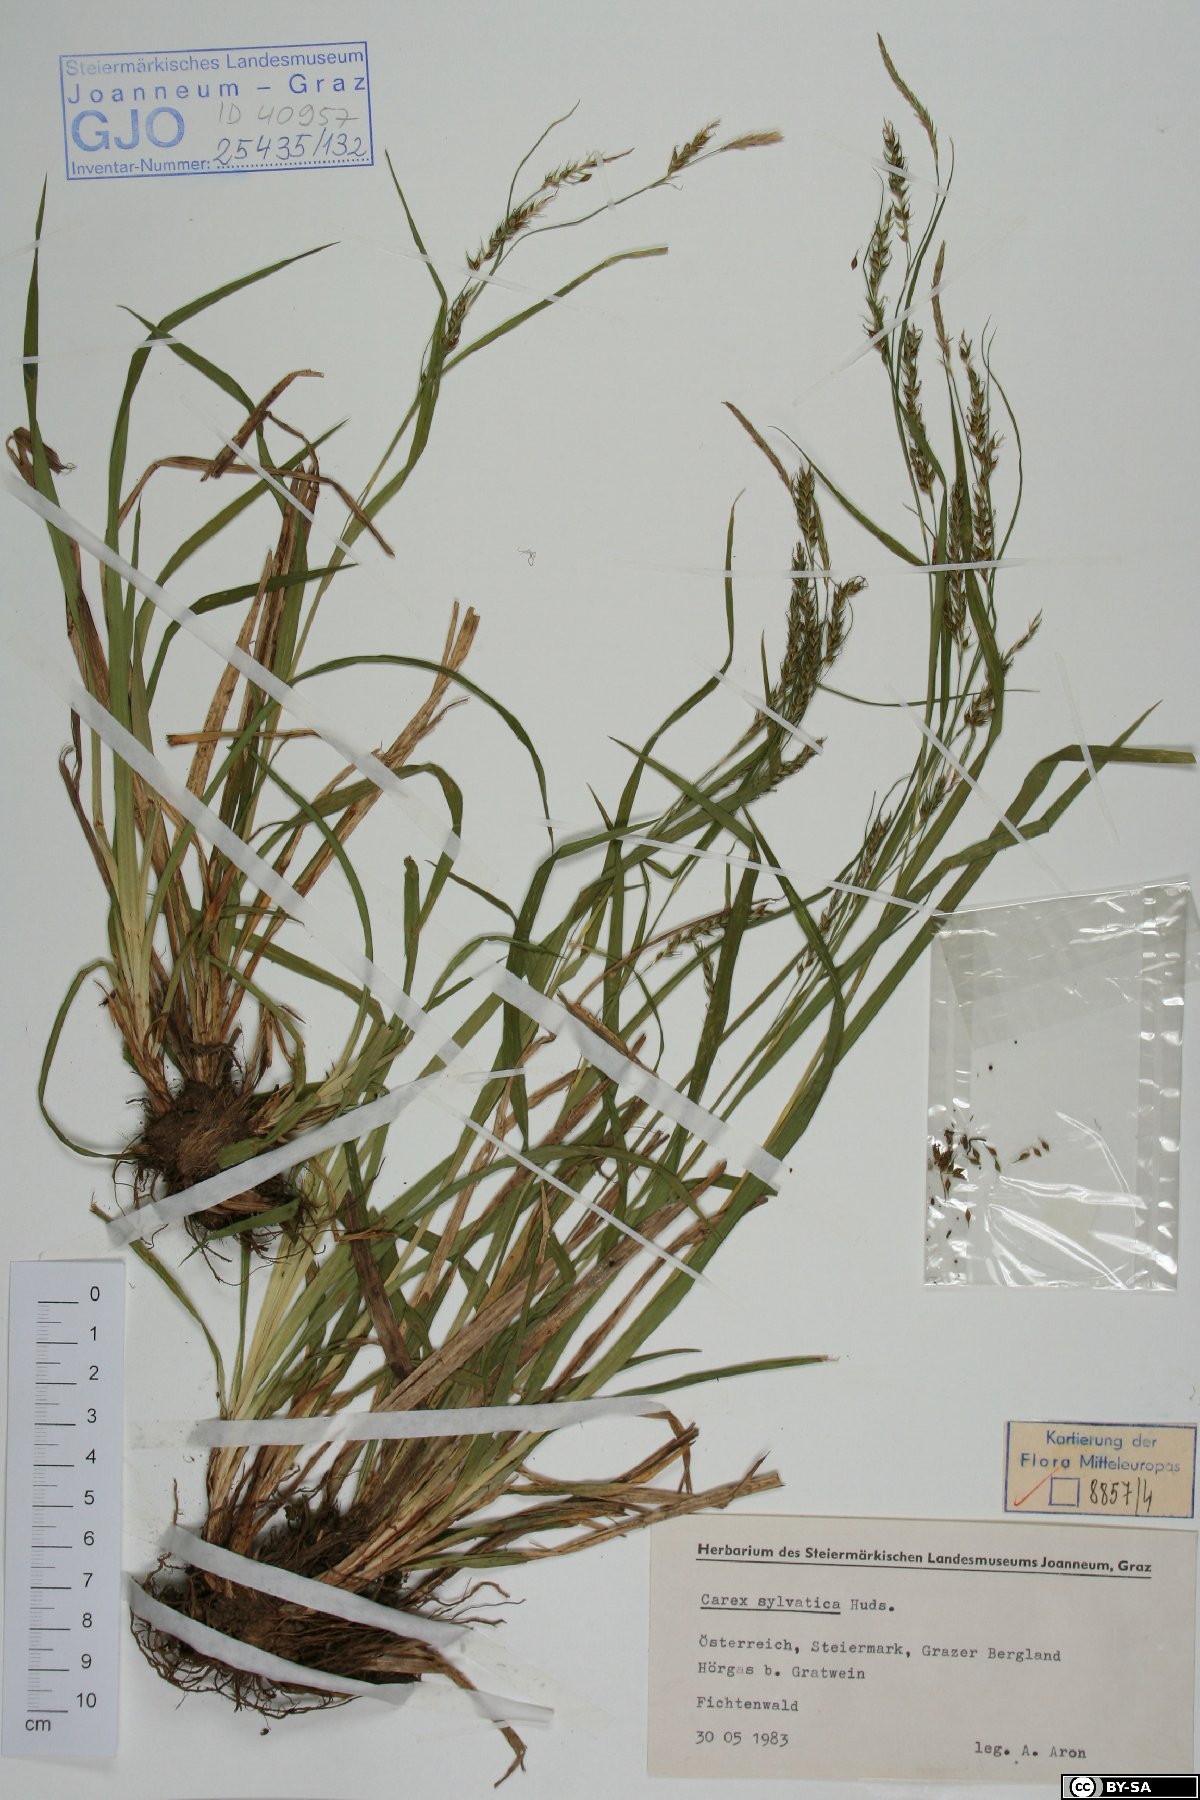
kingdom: Plantae
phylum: Tracheophyta
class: Liliopsida
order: Poales
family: Cyperaceae
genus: Carex
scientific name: Carex sylvatica
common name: Wood-sedge
